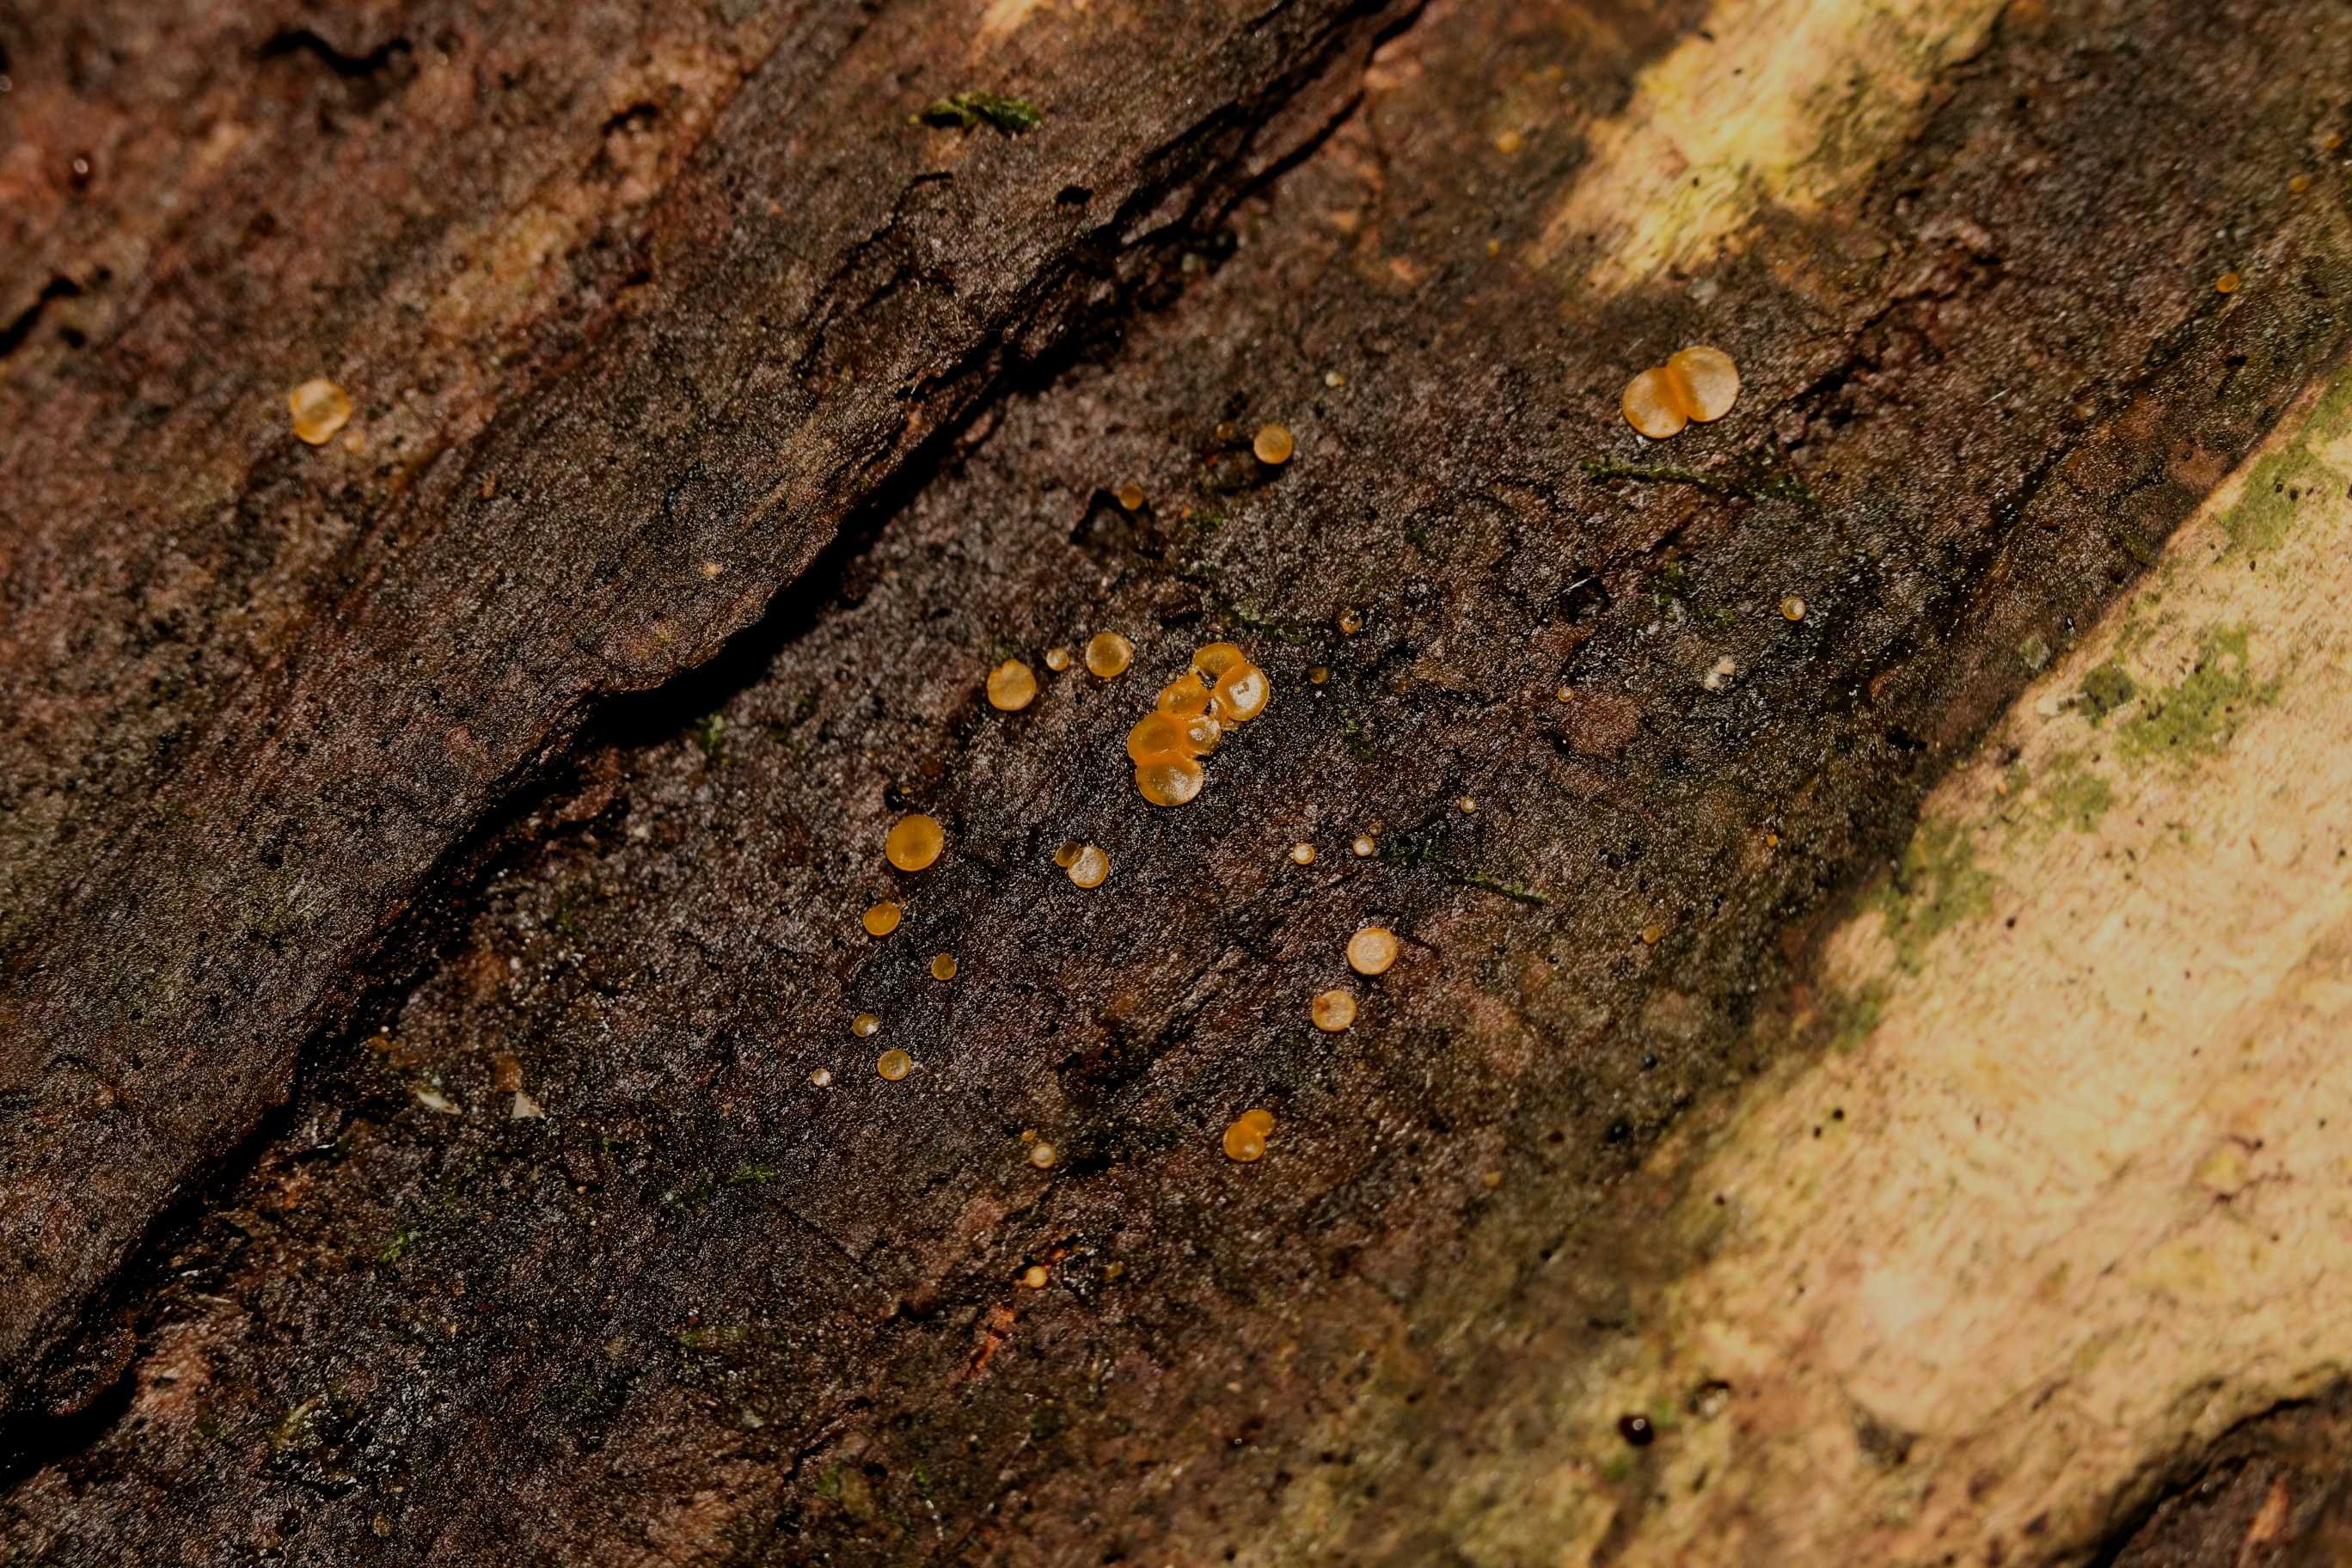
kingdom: Fungi
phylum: Ascomycota
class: Orbiliomycetes
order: Orbiliales
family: Orbiliaceae
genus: Orbilia
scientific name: Orbilia xanthostigma
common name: krumsporet voksskive
